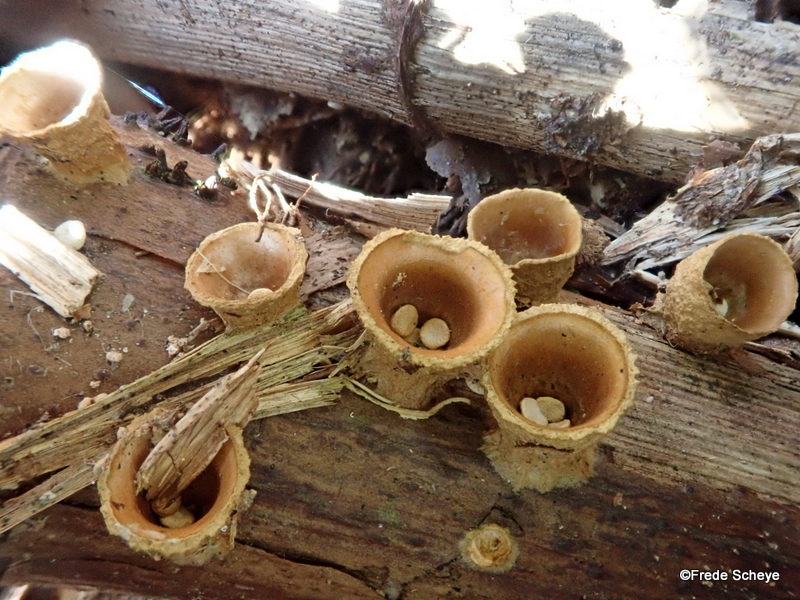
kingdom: Fungi
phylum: Basidiomycota
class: Agaricomycetes
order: Agaricales
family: Nidulariaceae
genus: Crucibulum
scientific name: Crucibulum crucibuliforme
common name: krukkesvamp
